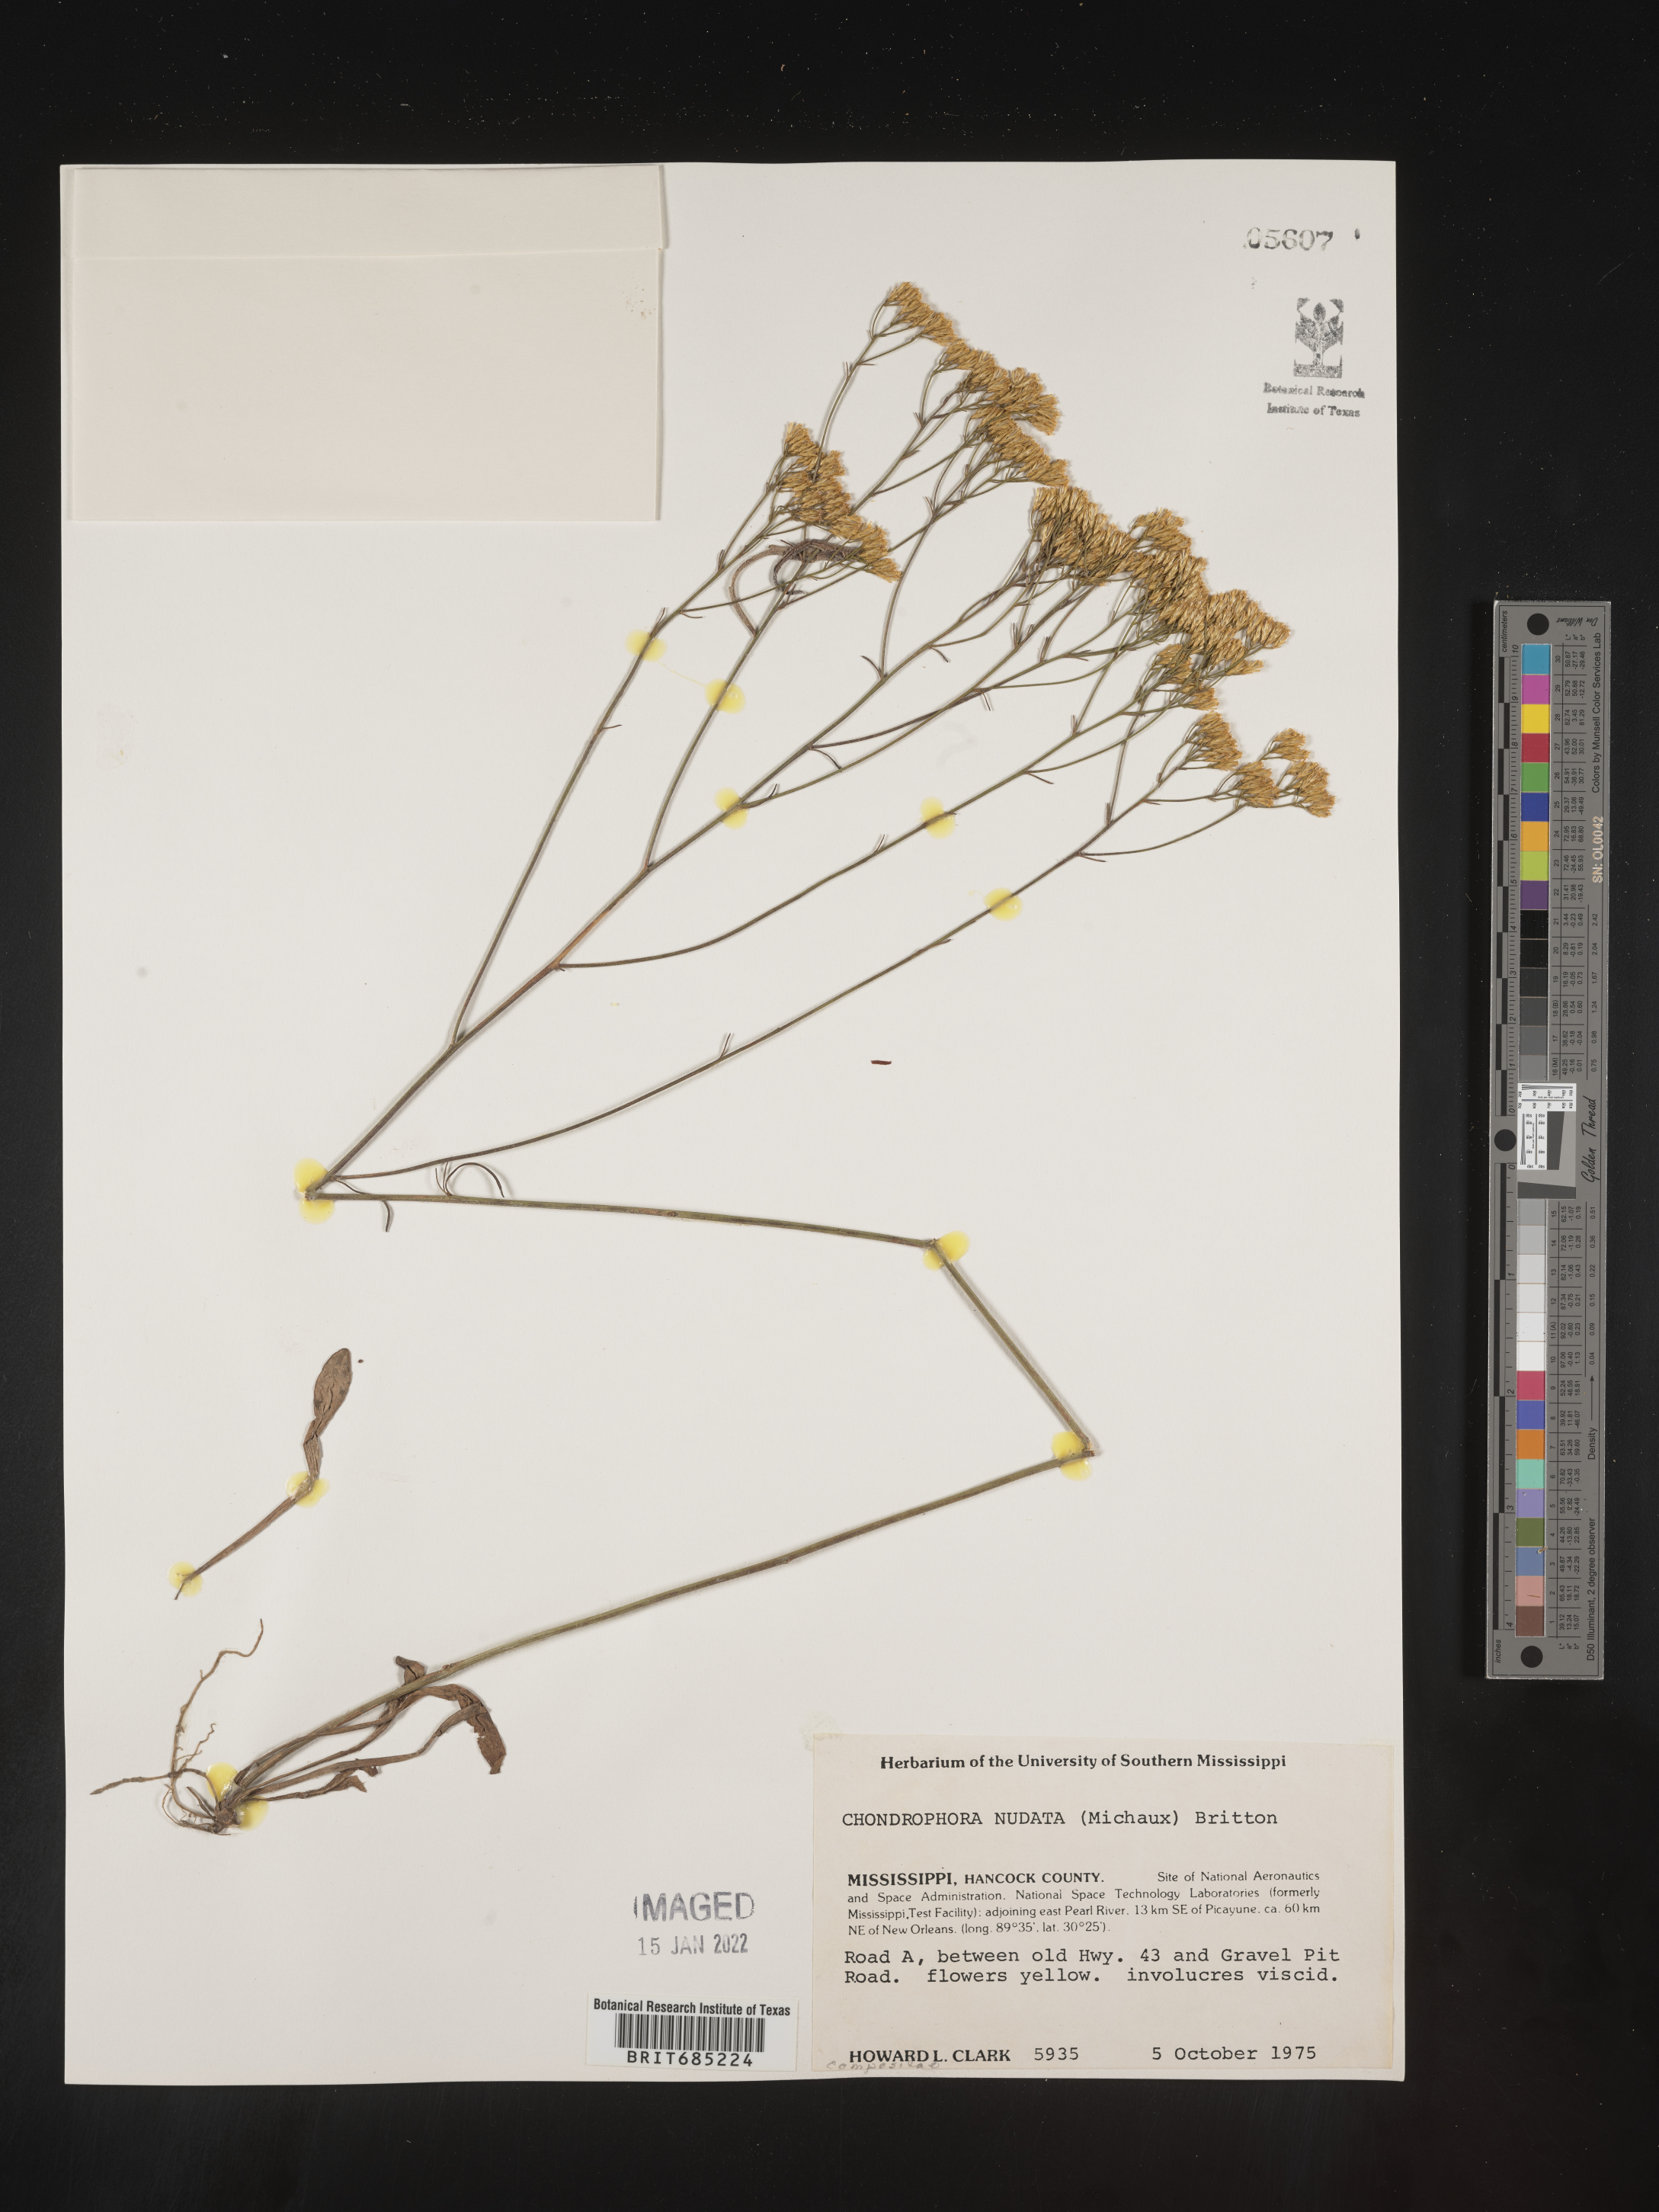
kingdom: Plantae
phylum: Tracheophyta
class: Magnoliopsida
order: Asterales
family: Asteraceae
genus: Bigelowia
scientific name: Bigelowia nudata
